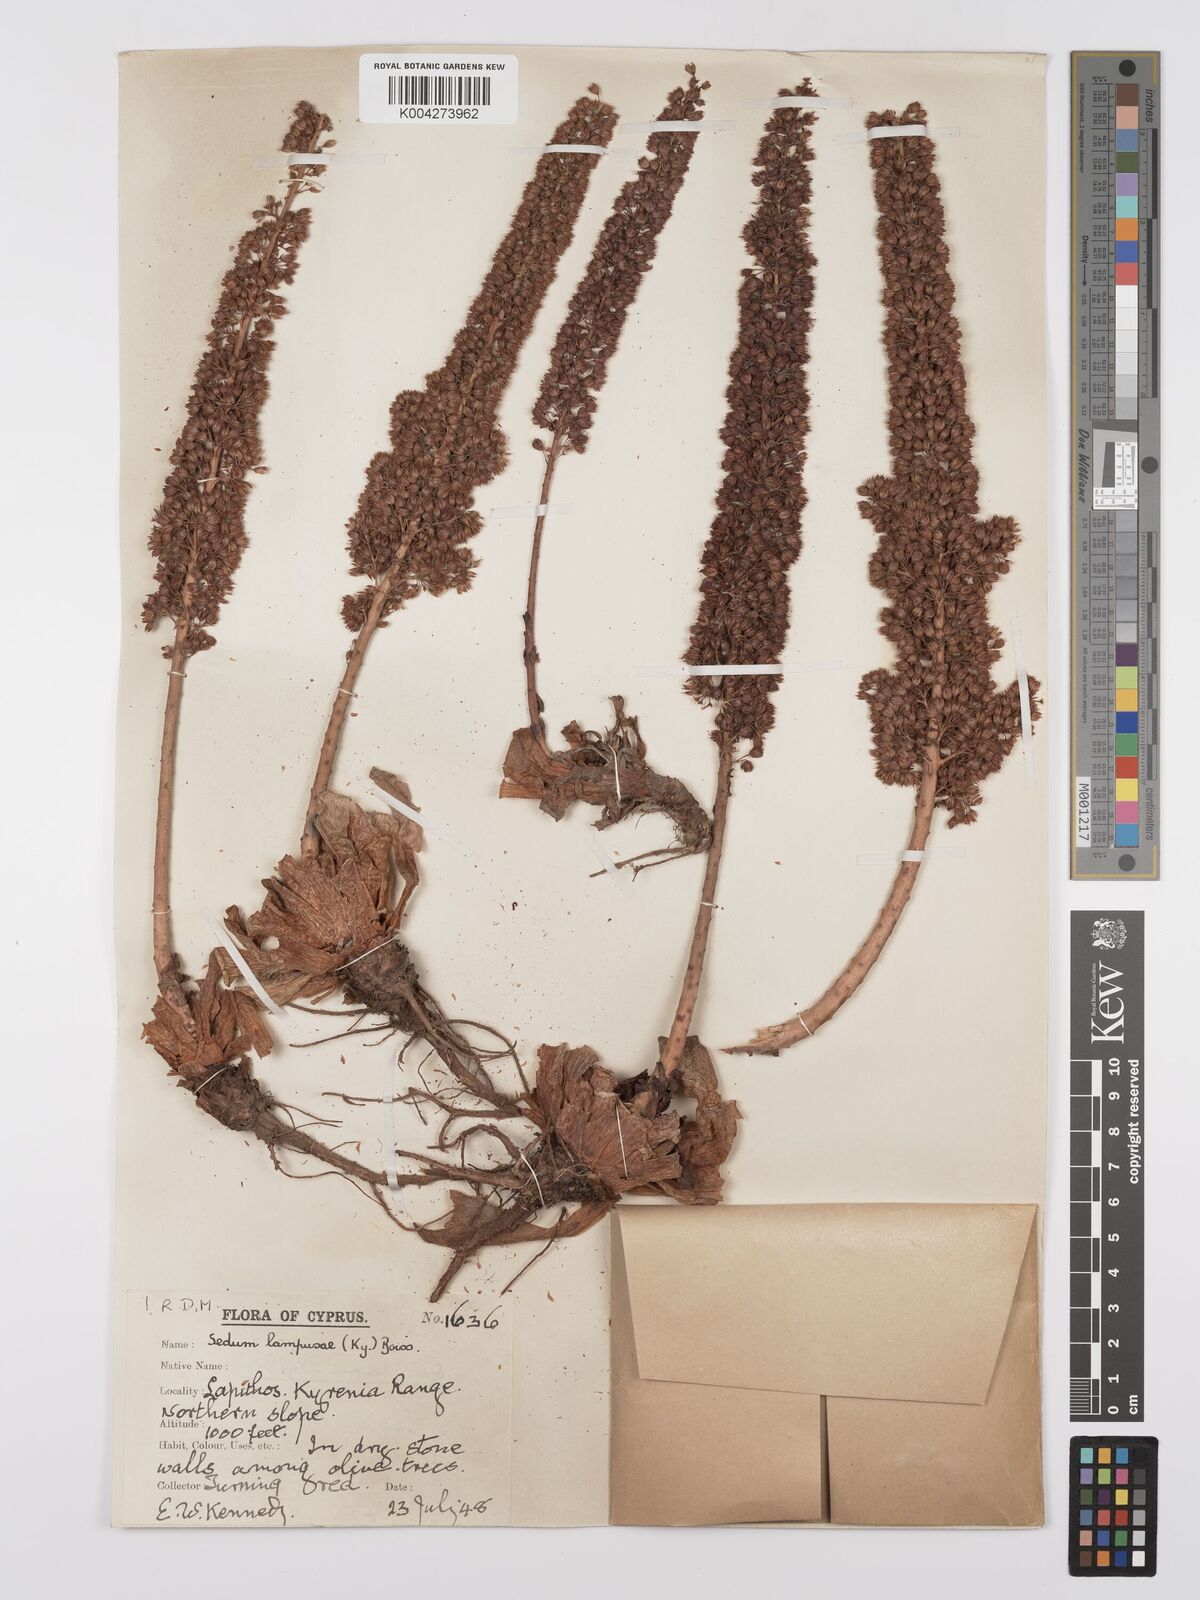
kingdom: Plantae
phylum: Tracheophyta
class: Magnoliopsida
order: Saxifragales
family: Crassulaceae
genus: Sedum
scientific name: Sedum lampusae
